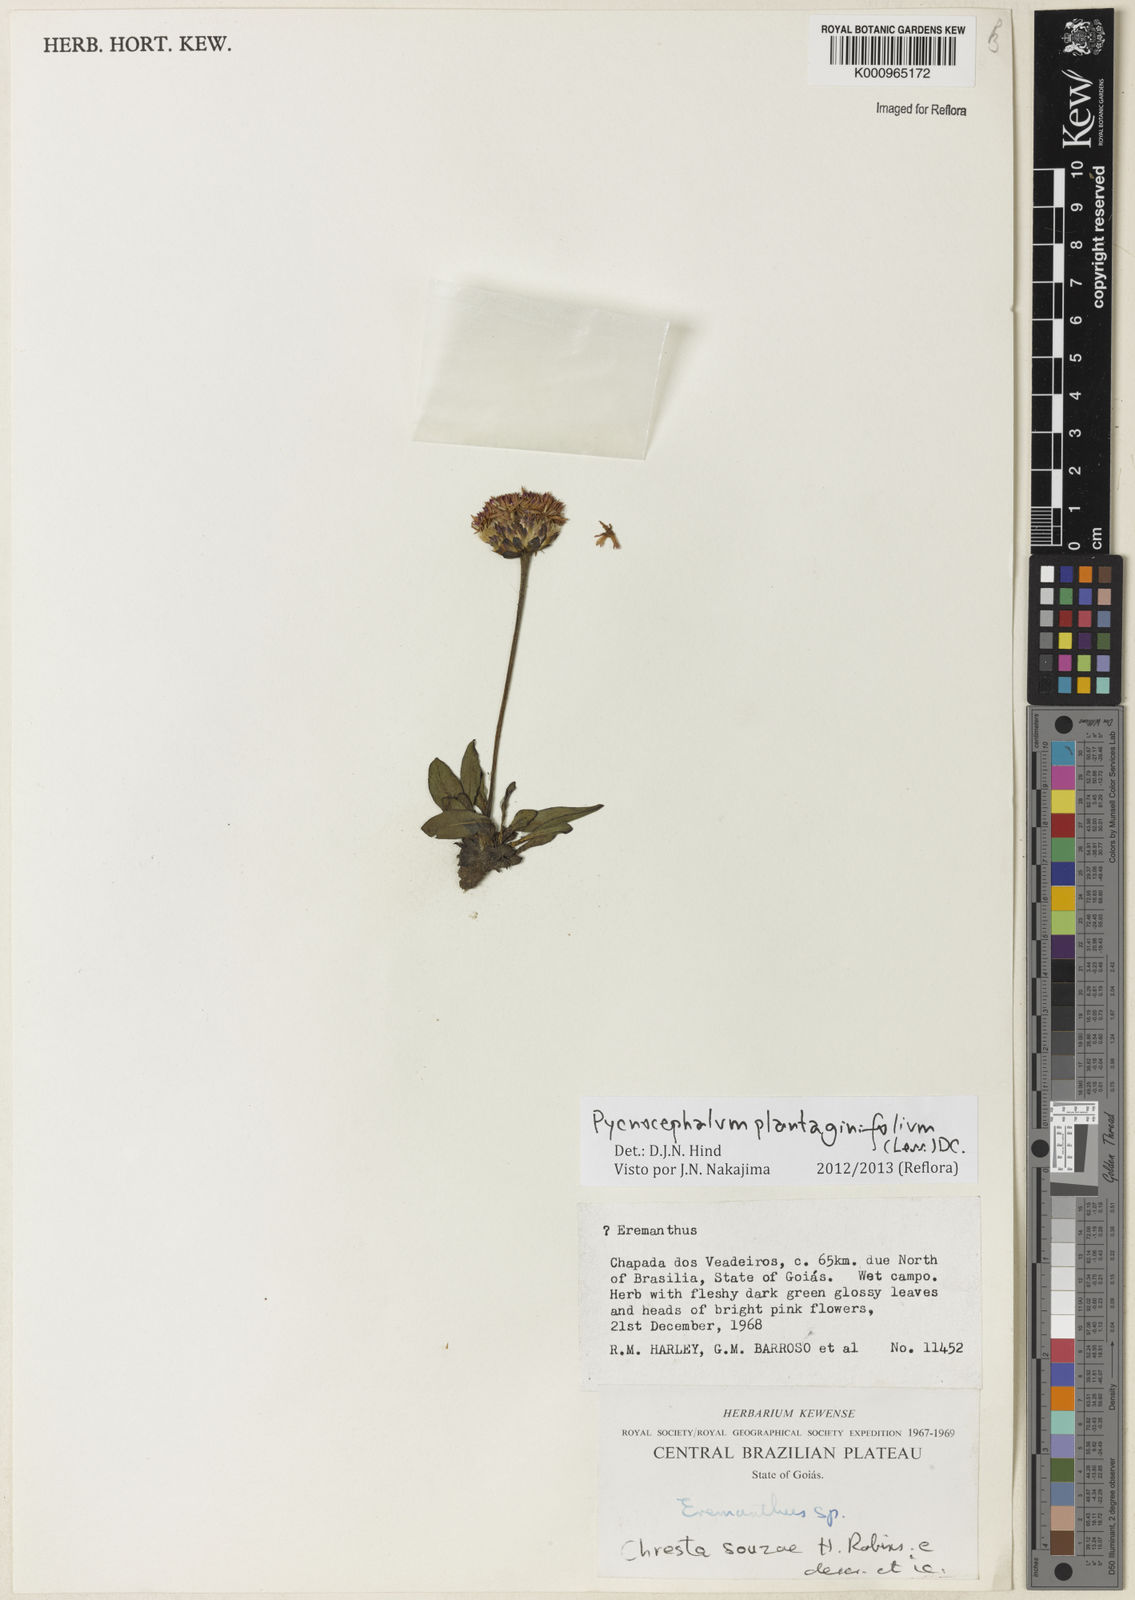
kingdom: Plantae
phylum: Tracheophyta
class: Magnoliopsida
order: Asterales
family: Asteraceae
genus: Chresta
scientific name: Chresta plantaginifolia
